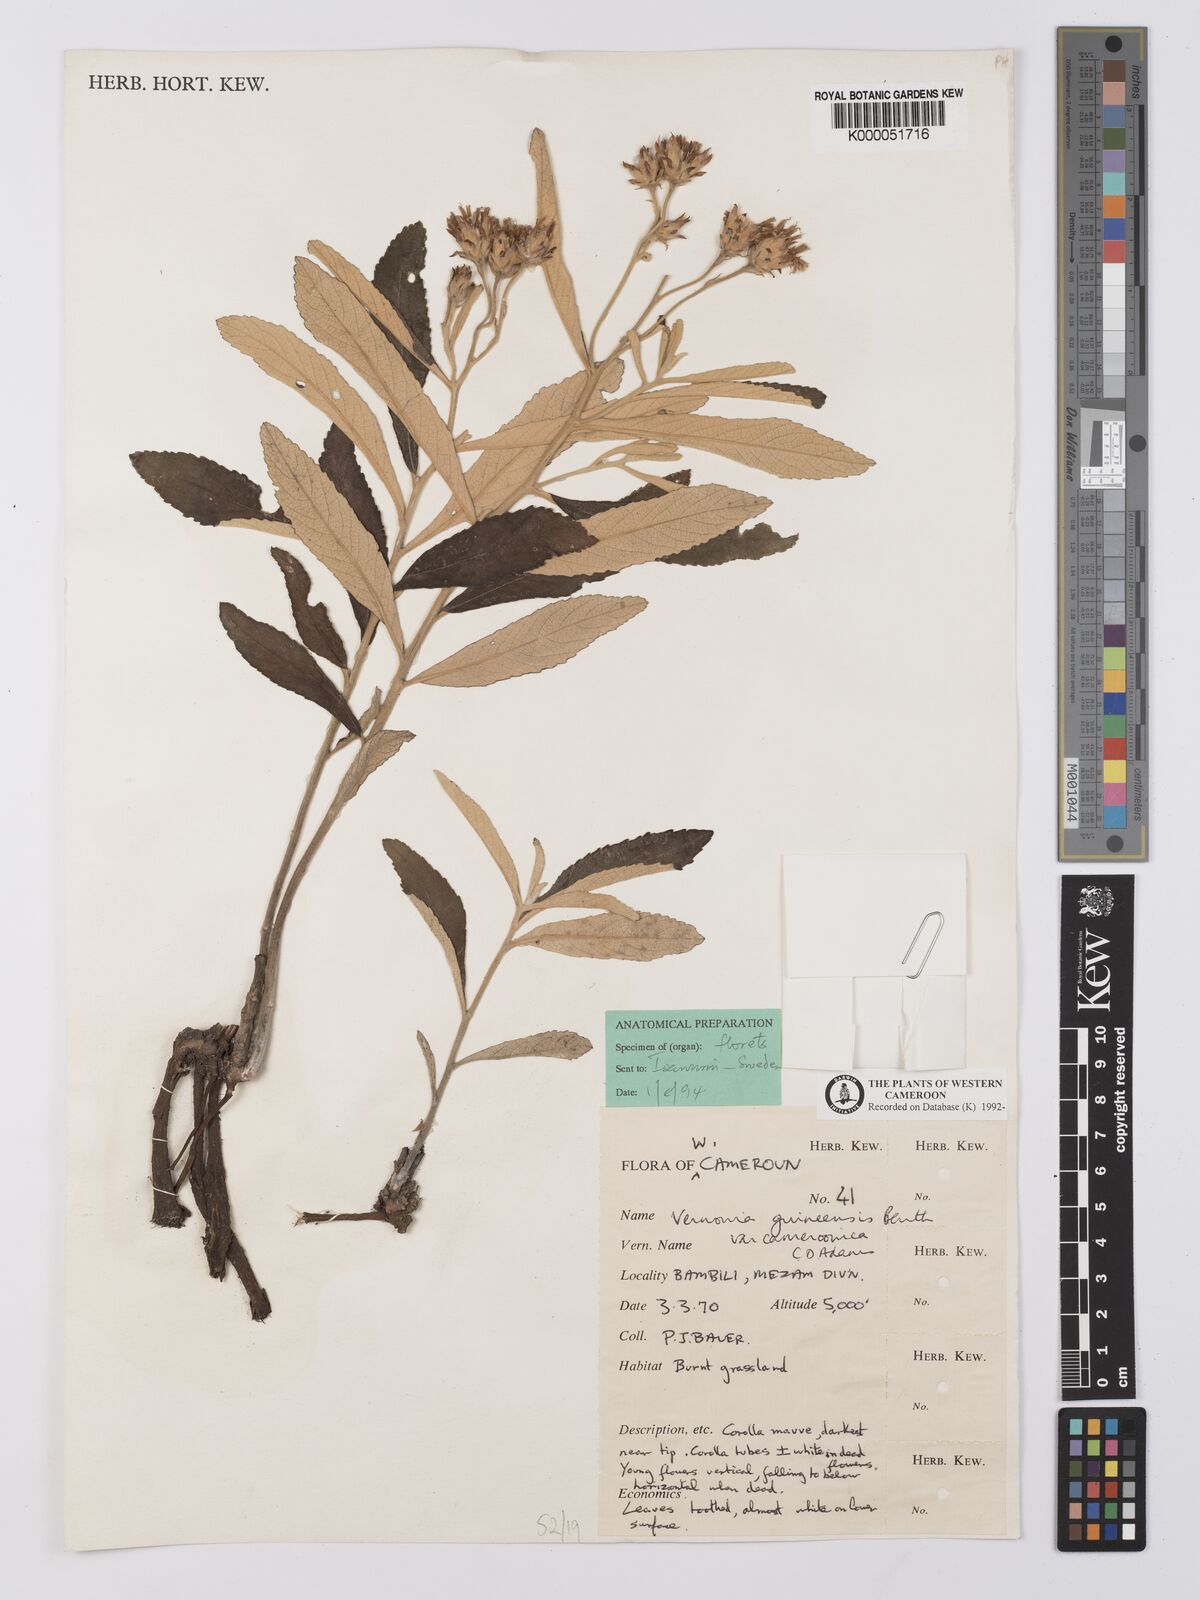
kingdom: Plantae
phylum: Tracheophyta
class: Magnoliopsida
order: Asterales
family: Asteraceae
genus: Baccharoides
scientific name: Baccharoides guineensis
